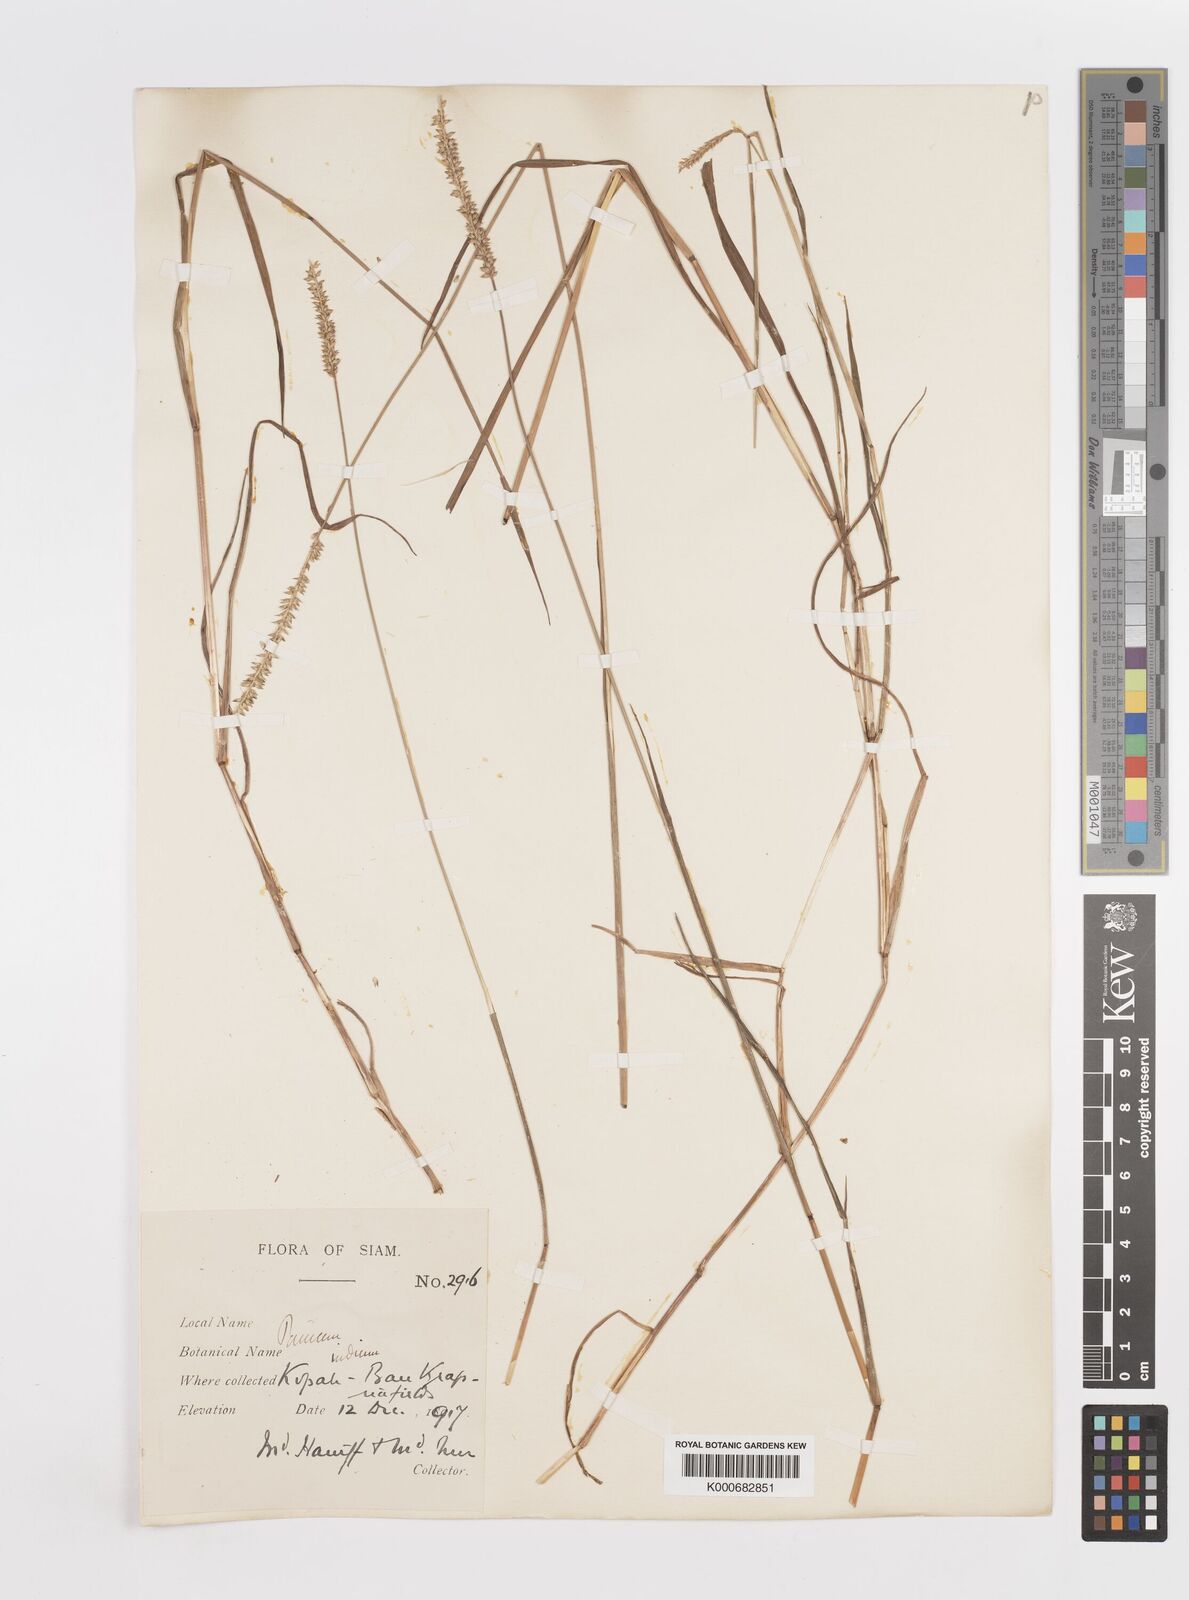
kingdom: Plantae
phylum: Tracheophyta
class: Liliopsida
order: Poales
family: Poaceae
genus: Sacciolepis
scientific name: Sacciolepis indica
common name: Glenwoodgrass
